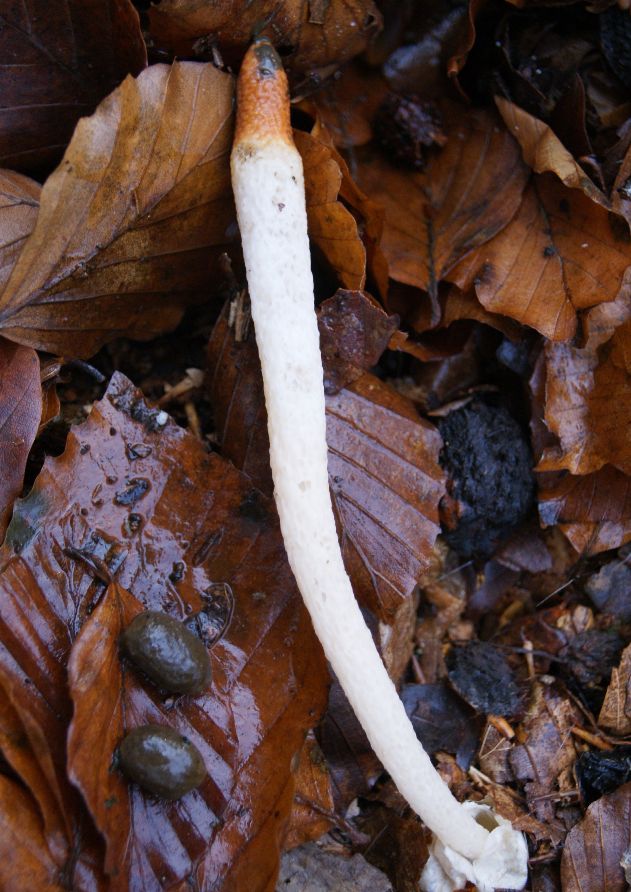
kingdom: Fungi
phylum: Basidiomycota
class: Agaricomycetes
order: Phallales
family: Phallaceae
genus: Mutinus
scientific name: Mutinus caninus
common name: hunde-stinksvamp
